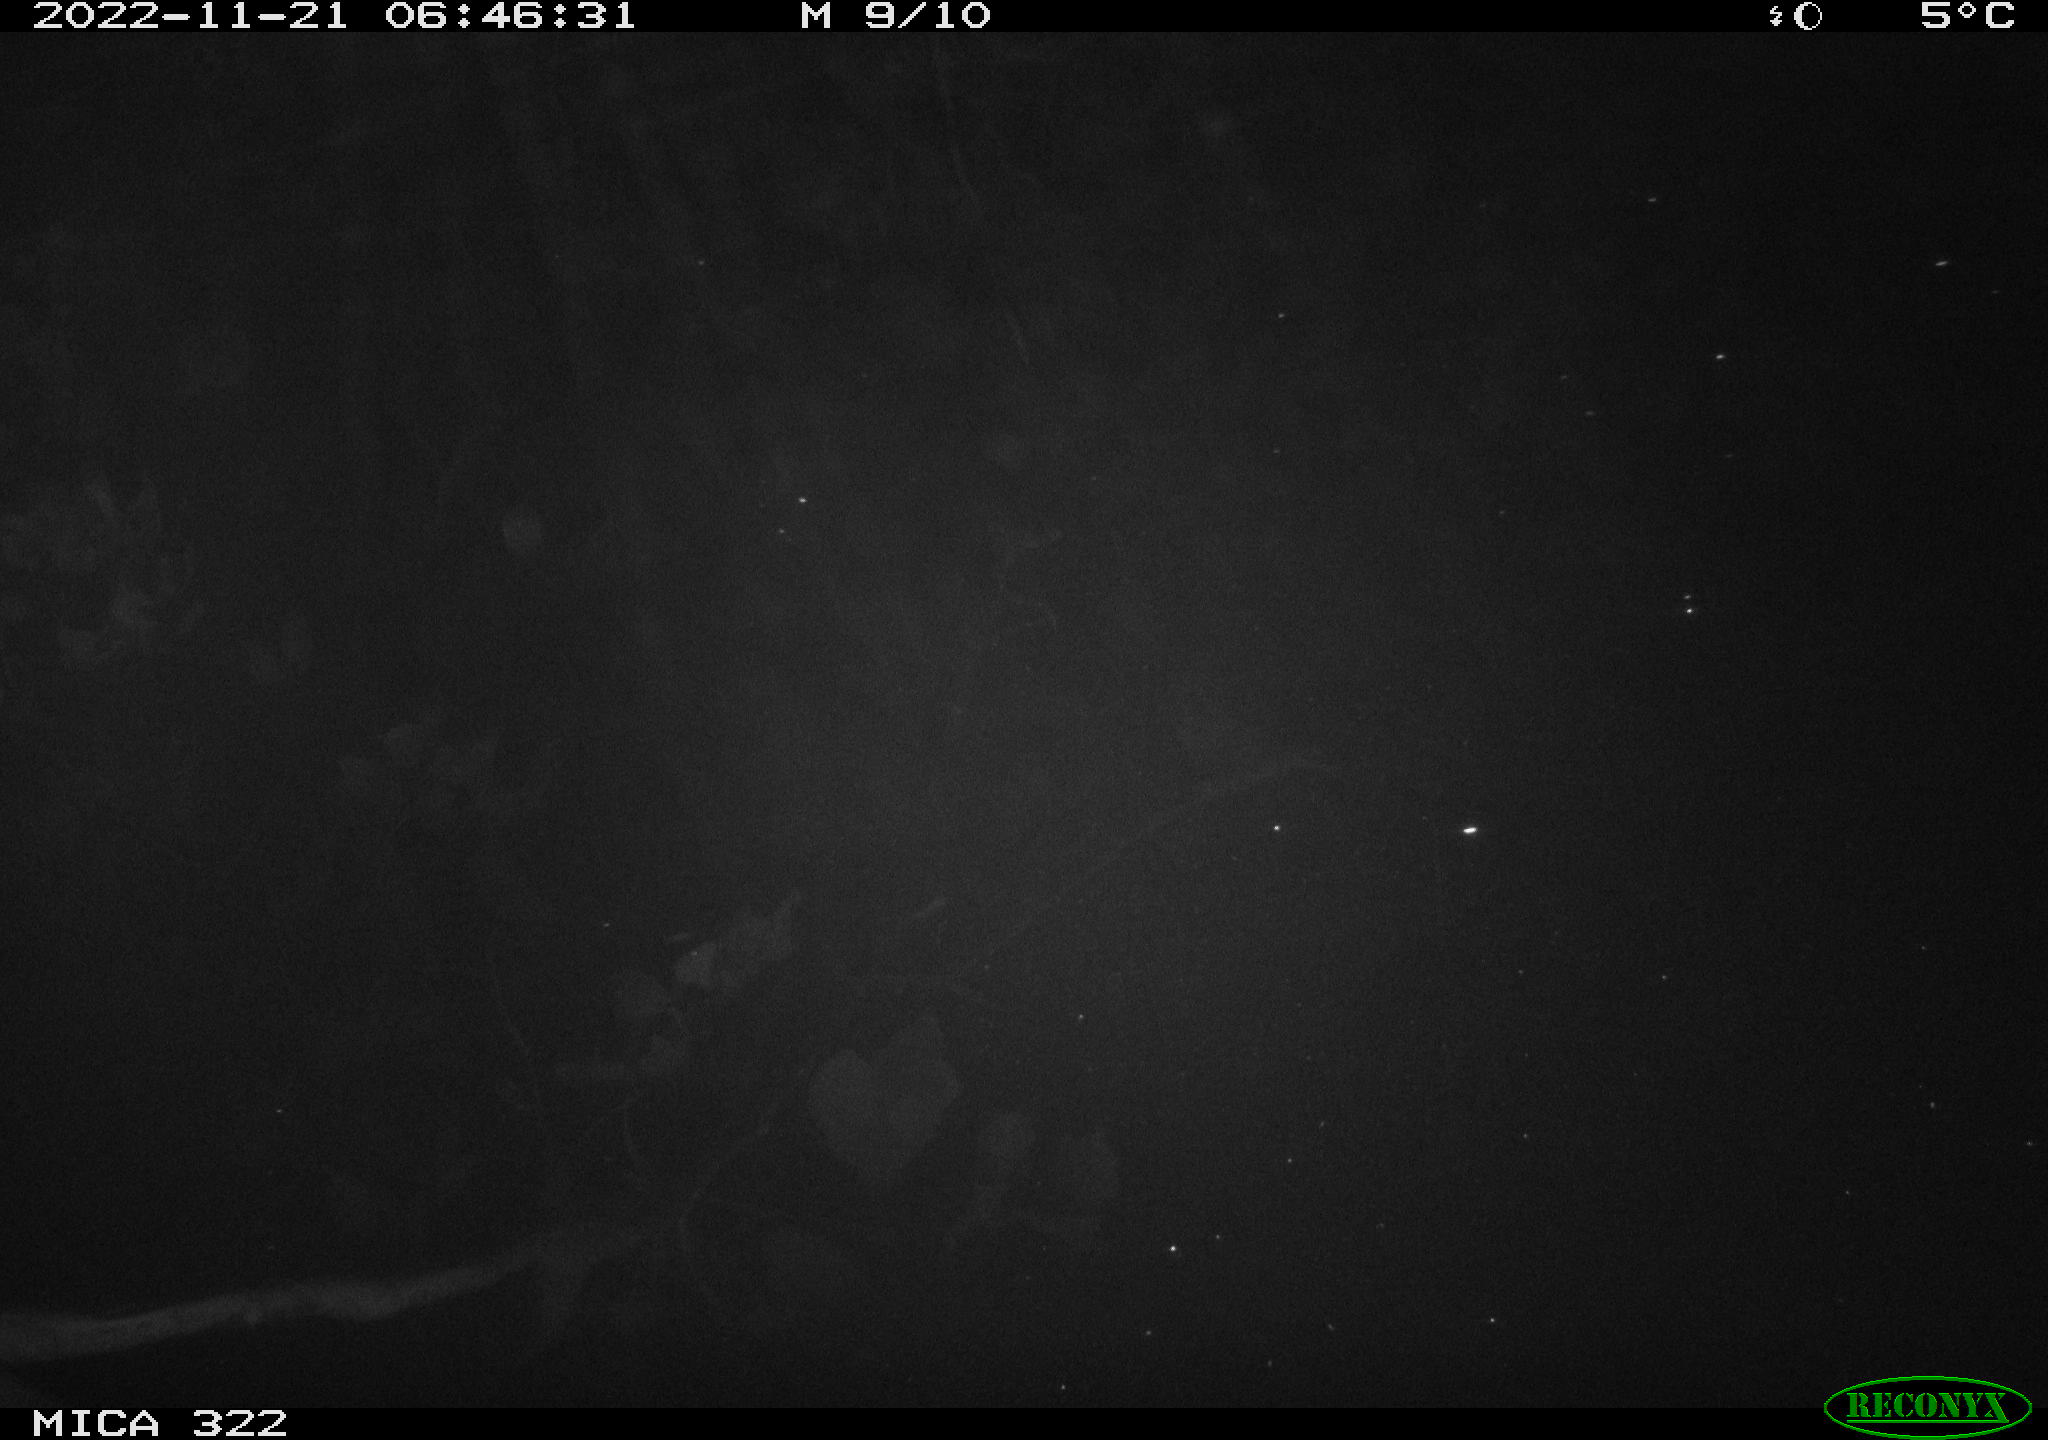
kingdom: Animalia
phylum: Chordata
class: Mammalia
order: Rodentia
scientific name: Rodentia
